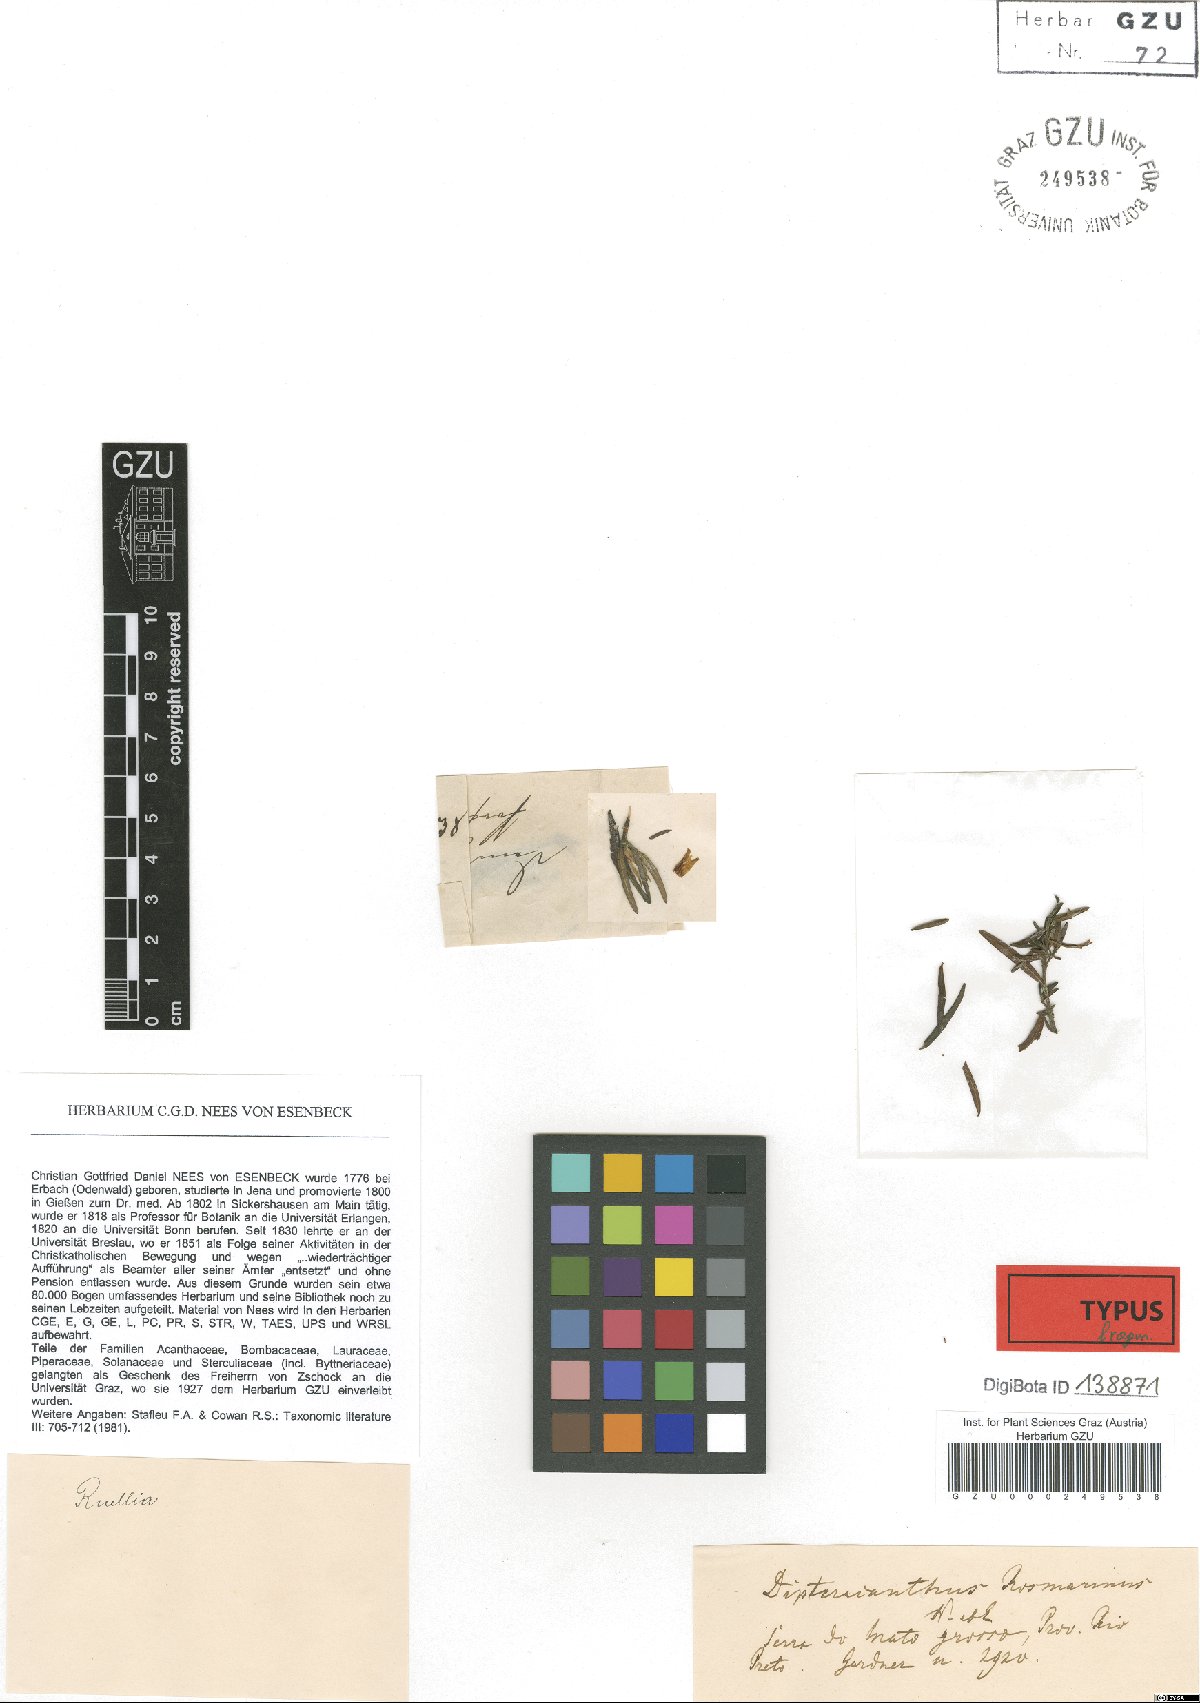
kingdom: Plantae
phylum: Tracheophyta
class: Magnoliopsida
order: Lamiales
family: Acanthaceae
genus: Ruellia
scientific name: Ruellia Dipteracanthus rosmarinus
